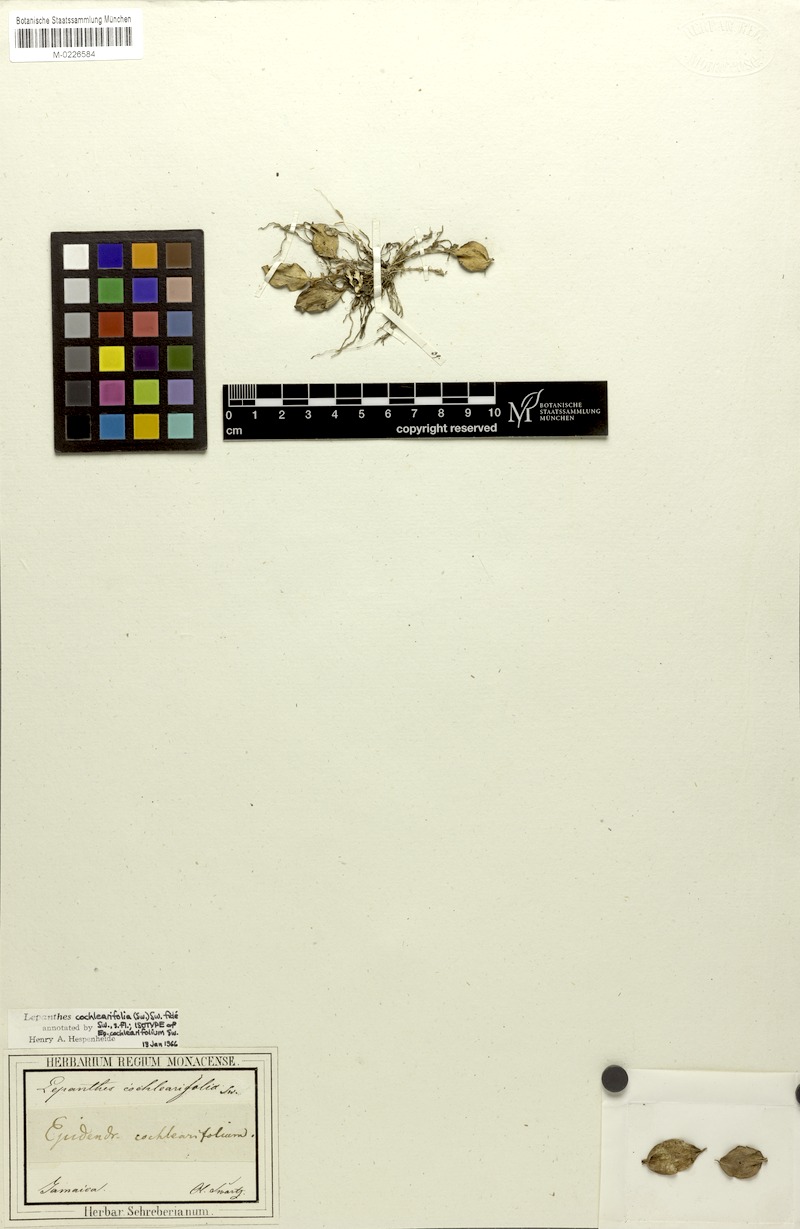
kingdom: Plantae
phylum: Tracheophyta
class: Liliopsida
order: Asparagales
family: Orchidaceae
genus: Lepanthes
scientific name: Lepanthes cochleariifolia
